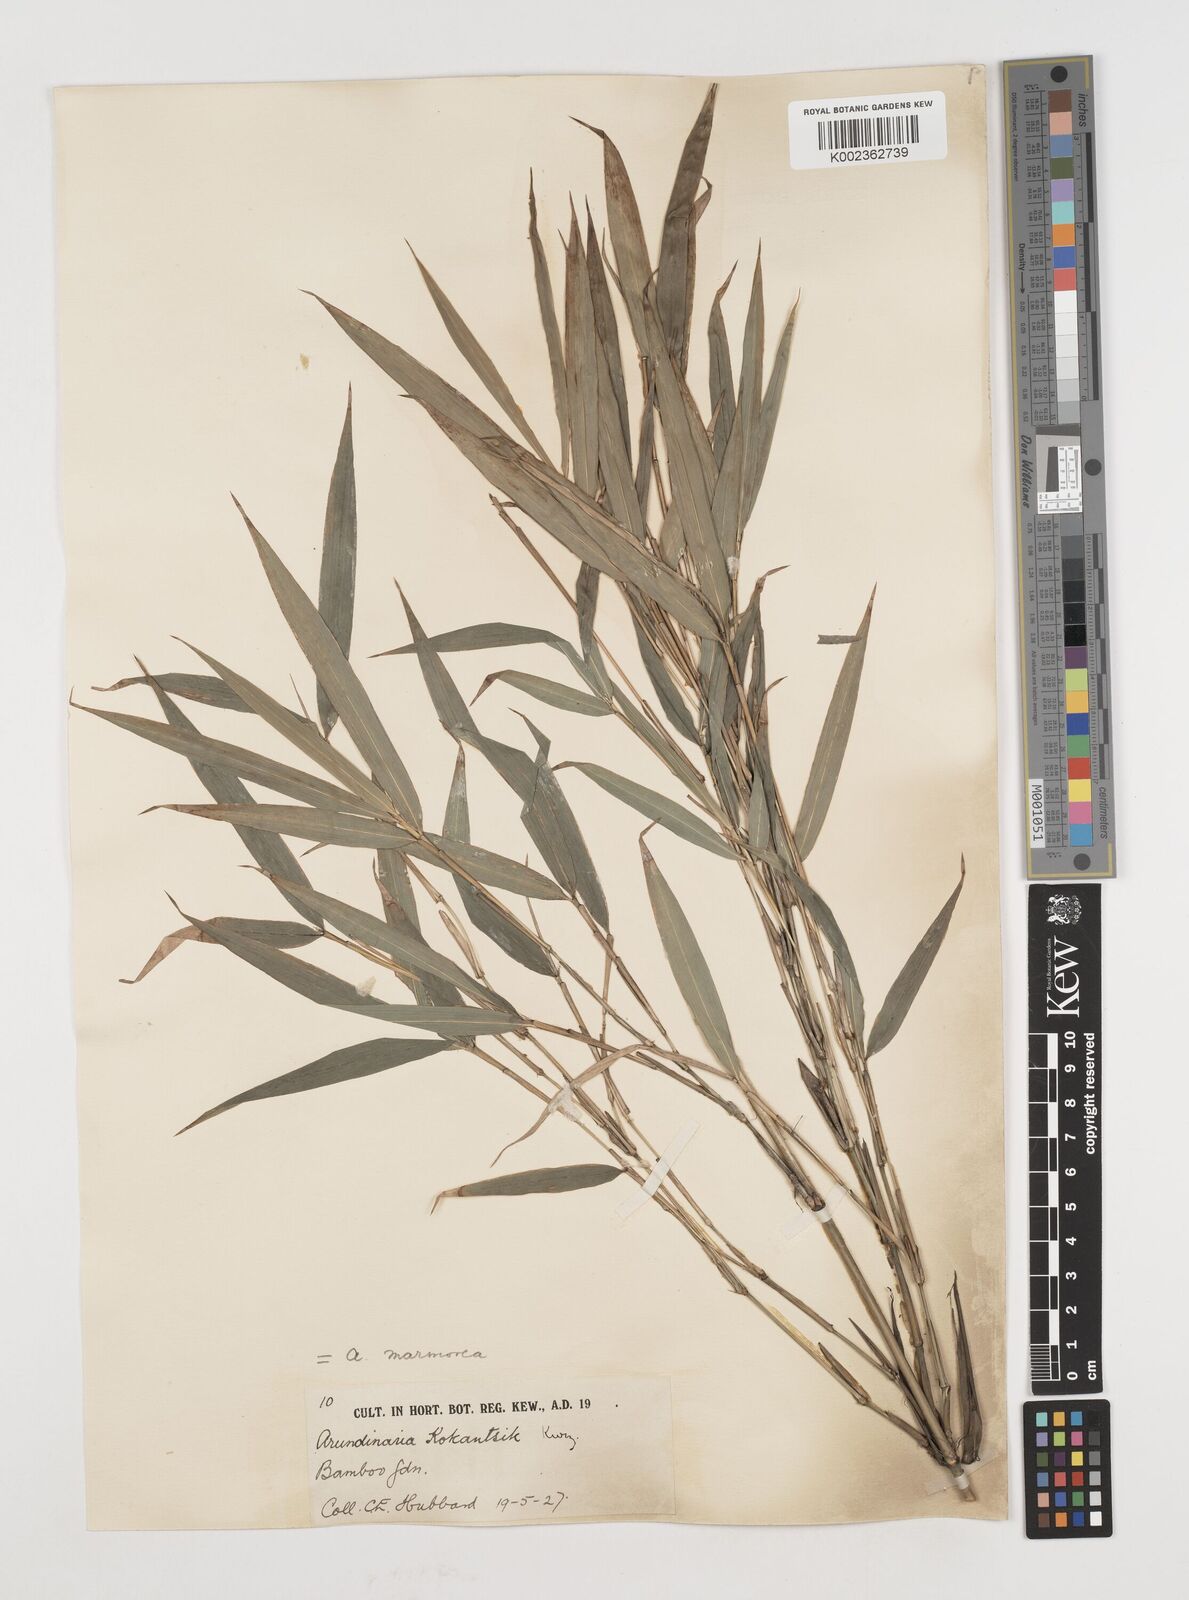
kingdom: Plantae
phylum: Tracheophyta
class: Liliopsida
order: Poales
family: Poaceae
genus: Chimonobambusa
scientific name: Chimonobambusa marmorea
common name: Marbled bamboo
